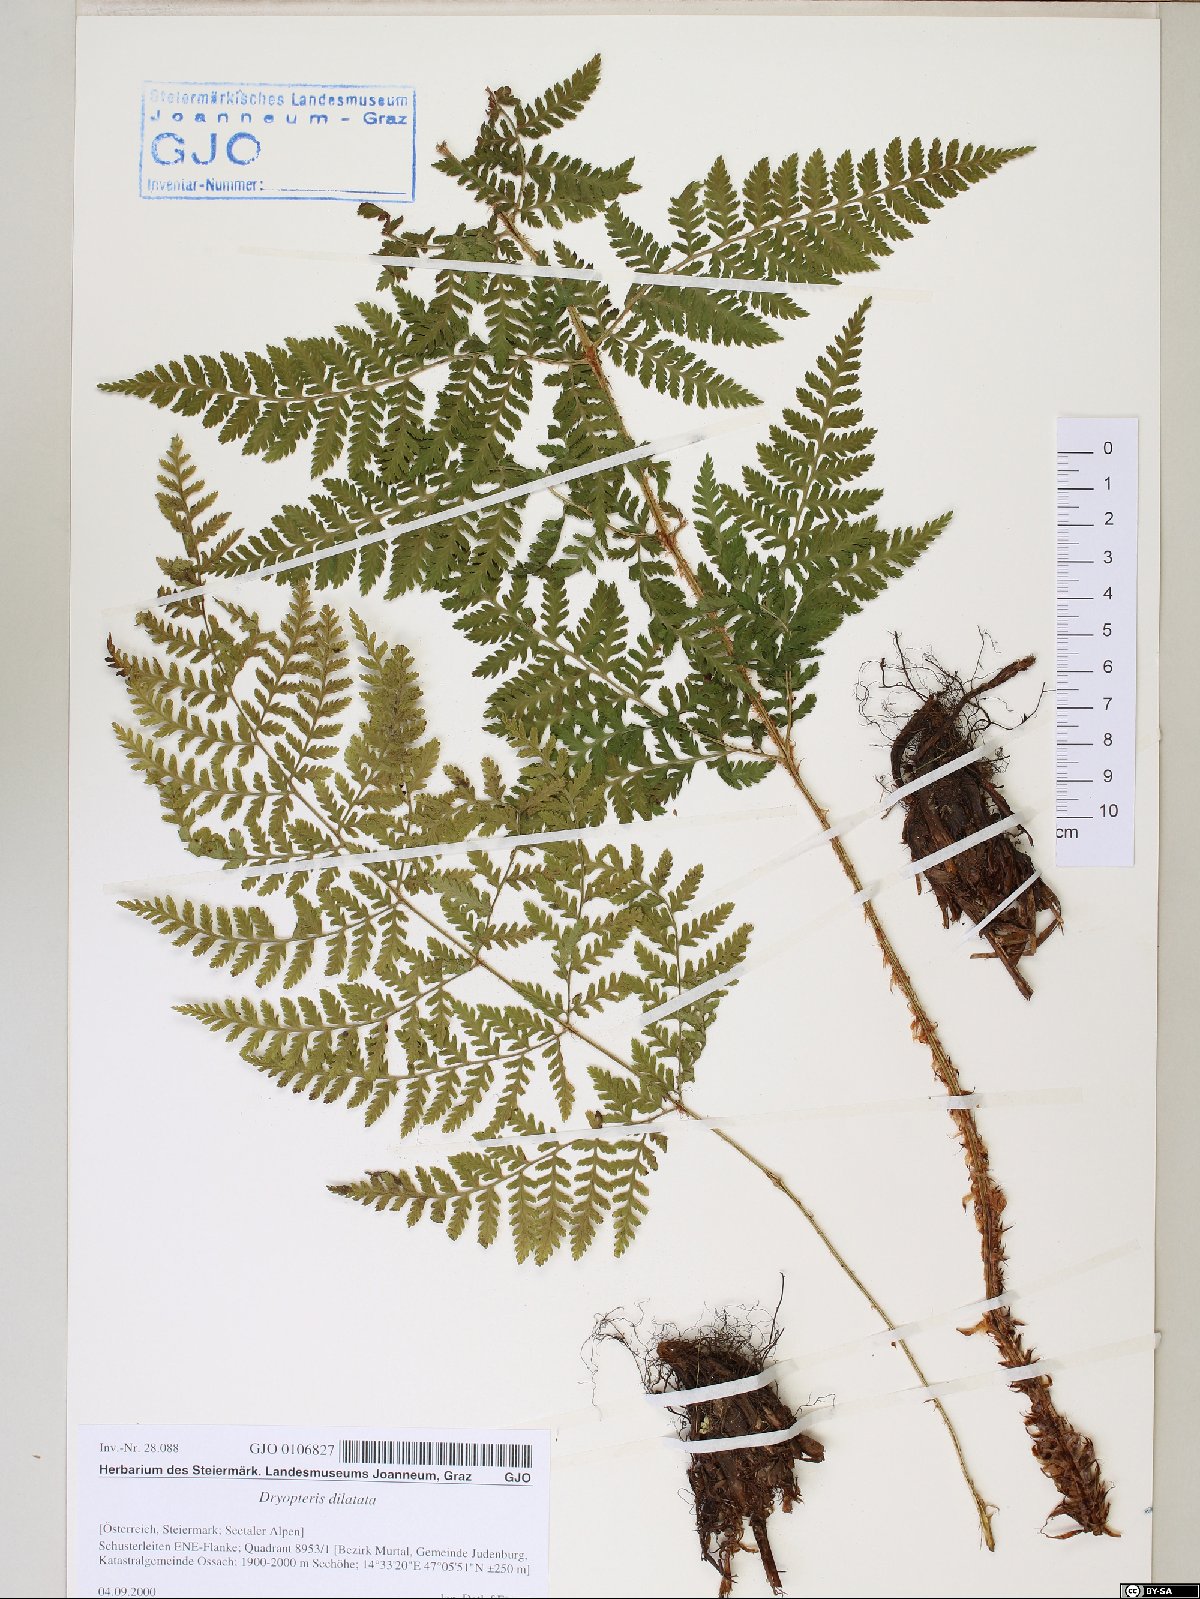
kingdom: Plantae
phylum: Tracheophyta
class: Polypodiopsida
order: Polypodiales
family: Dryopteridaceae
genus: Dryopteris
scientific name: Dryopteris dilatata
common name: Broad buckler-fern
